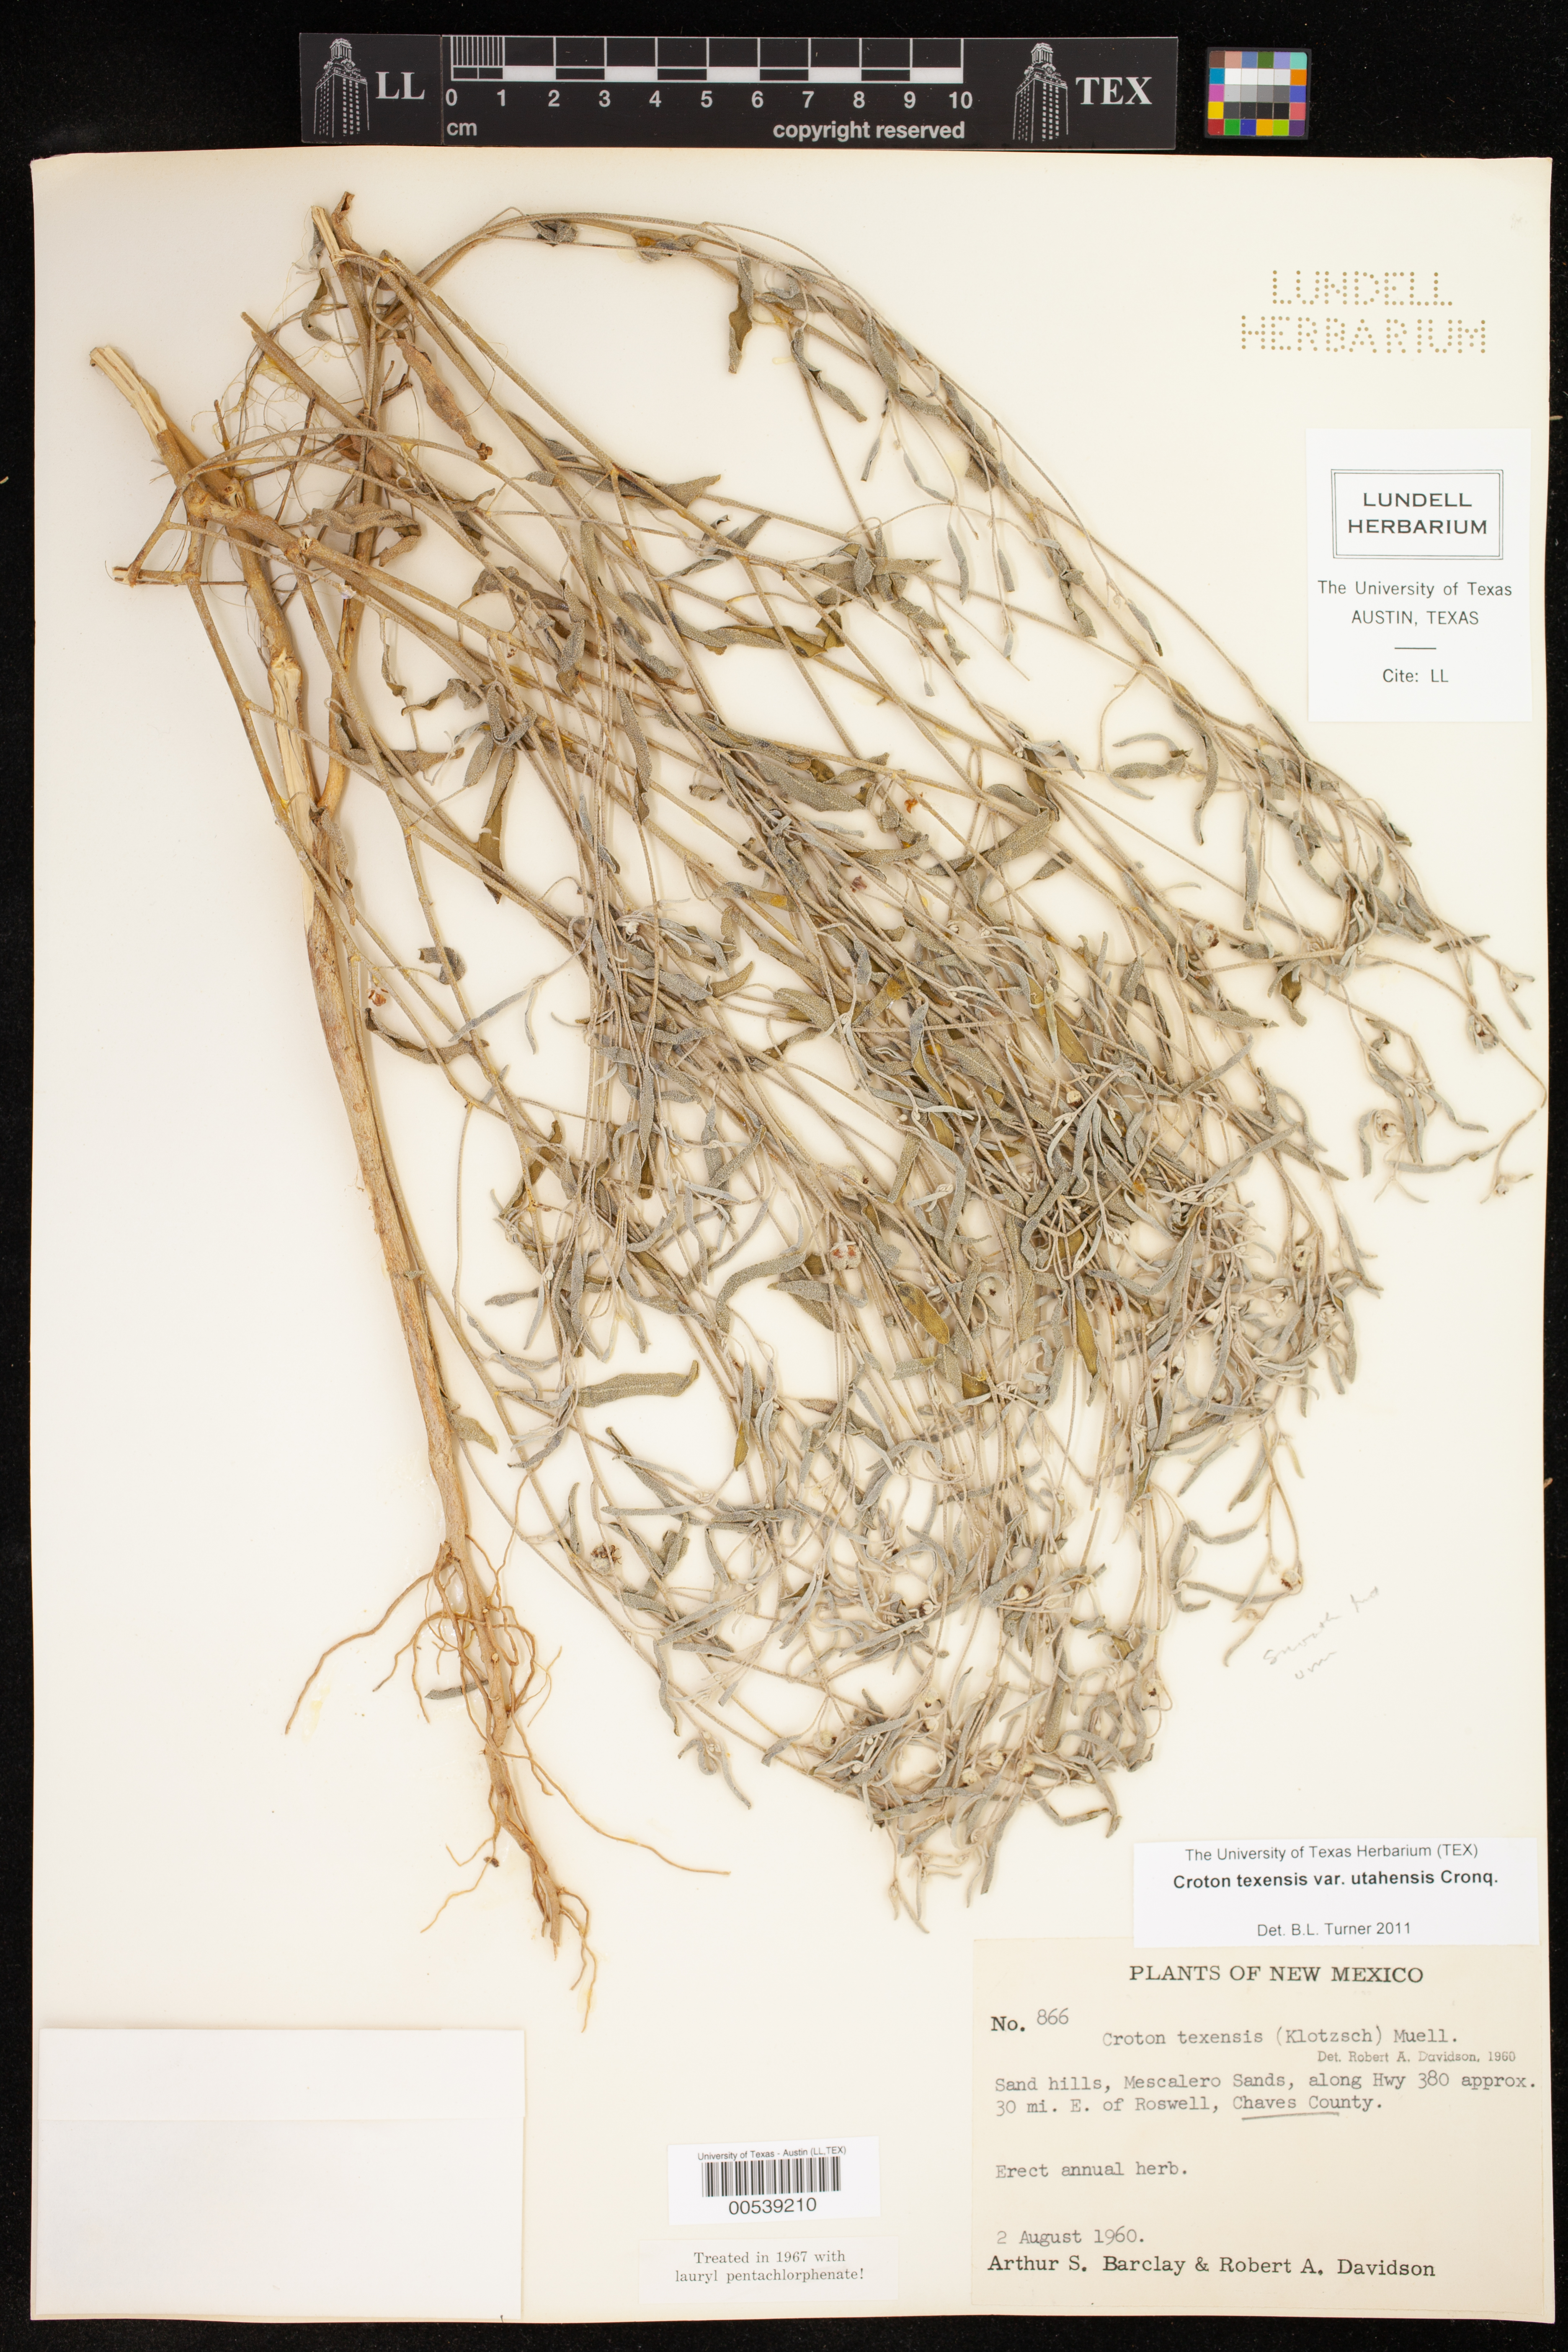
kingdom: Plantae
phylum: Tracheophyta
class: Magnoliopsida
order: Malpighiales
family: Euphorbiaceae
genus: Croton
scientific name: Croton texensis
